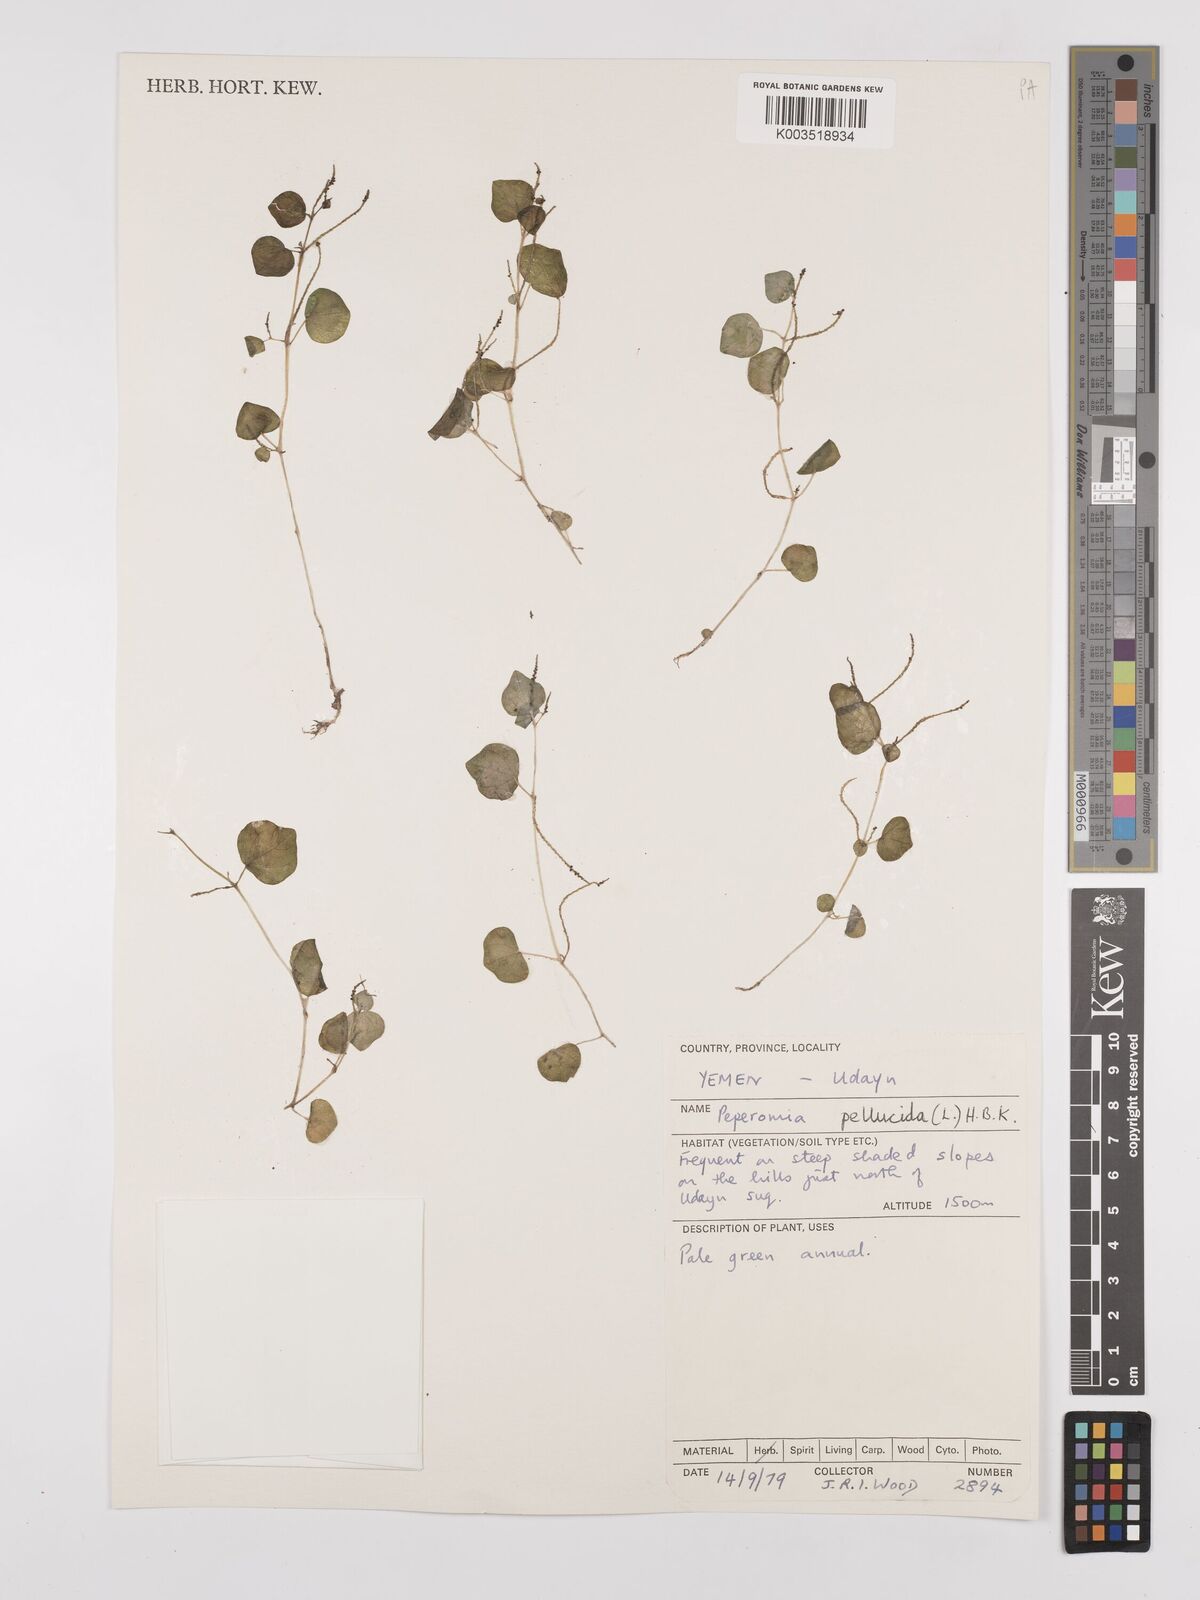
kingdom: Plantae
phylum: Tracheophyta
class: Magnoliopsida
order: Piperales
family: Piperaceae
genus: Peperomia
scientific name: Peperomia pellucida
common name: Man to man
